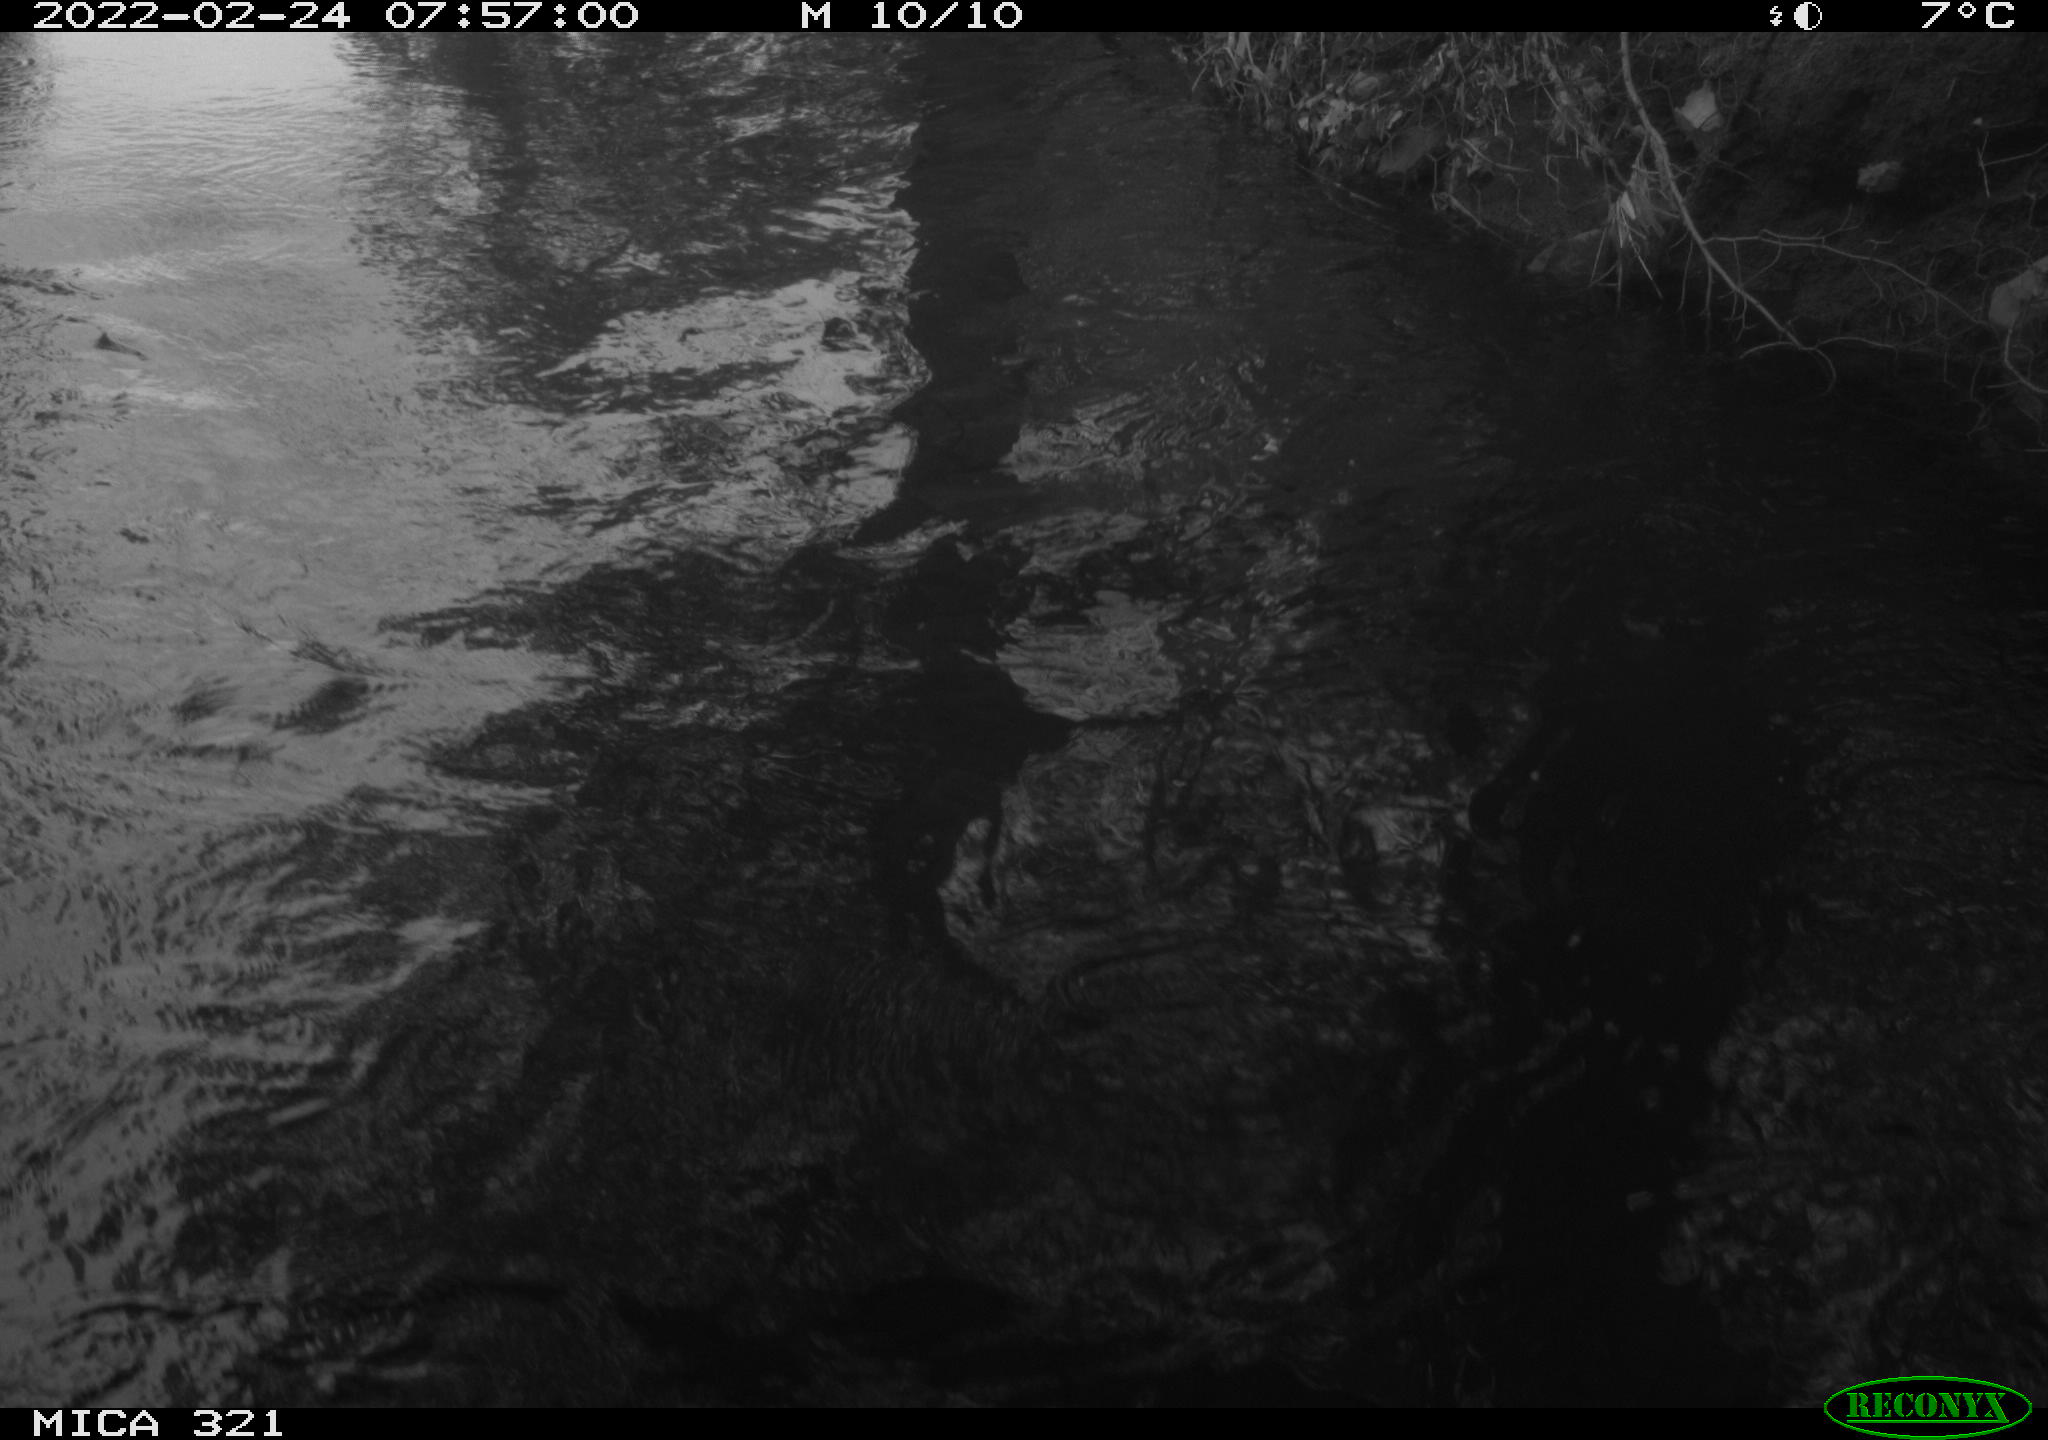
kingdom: Animalia
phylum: Chordata
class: Aves
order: Suliformes
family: Phalacrocoracidae
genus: Phalacrocorax
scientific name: Phalacrocorax carbo
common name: Great cormorant
